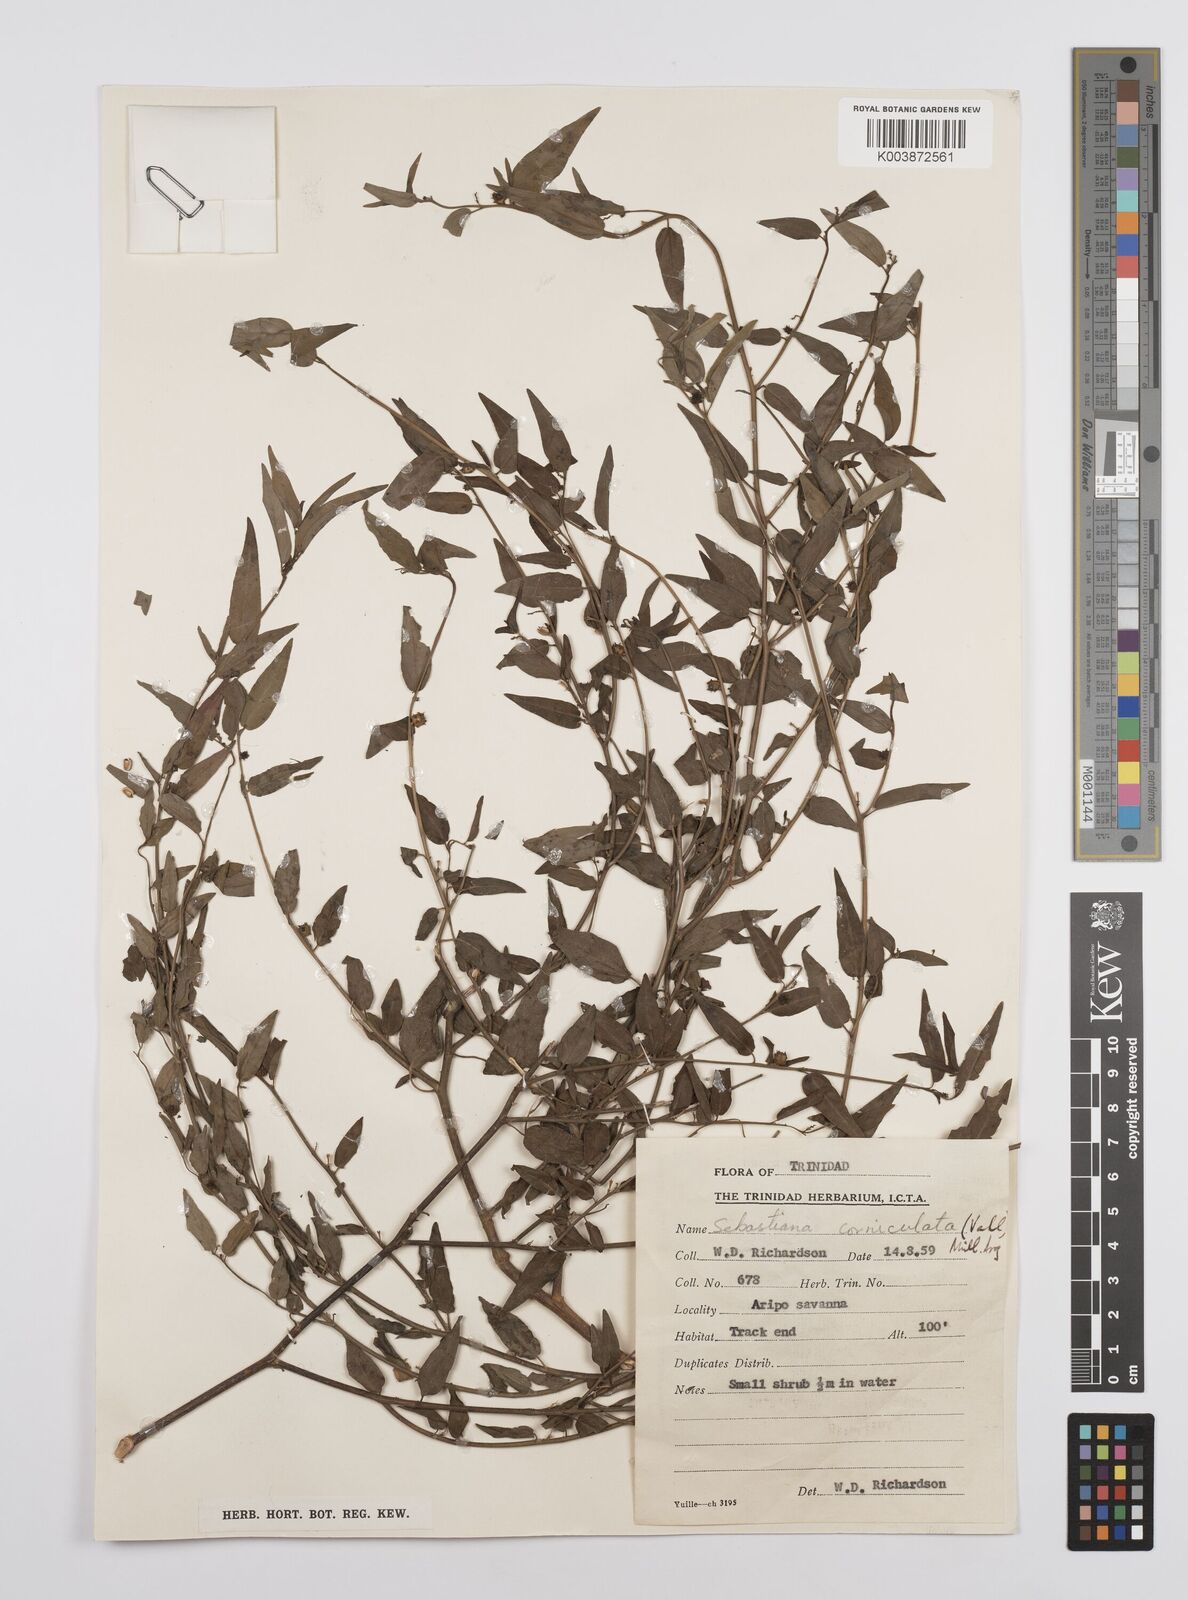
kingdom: Plantae
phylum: Tracheophyta
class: Magnoliopsida
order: Malpighiales
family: Euphorbiaceae
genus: Microstachys
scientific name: Microstachys corniculata
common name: Hato tejas
